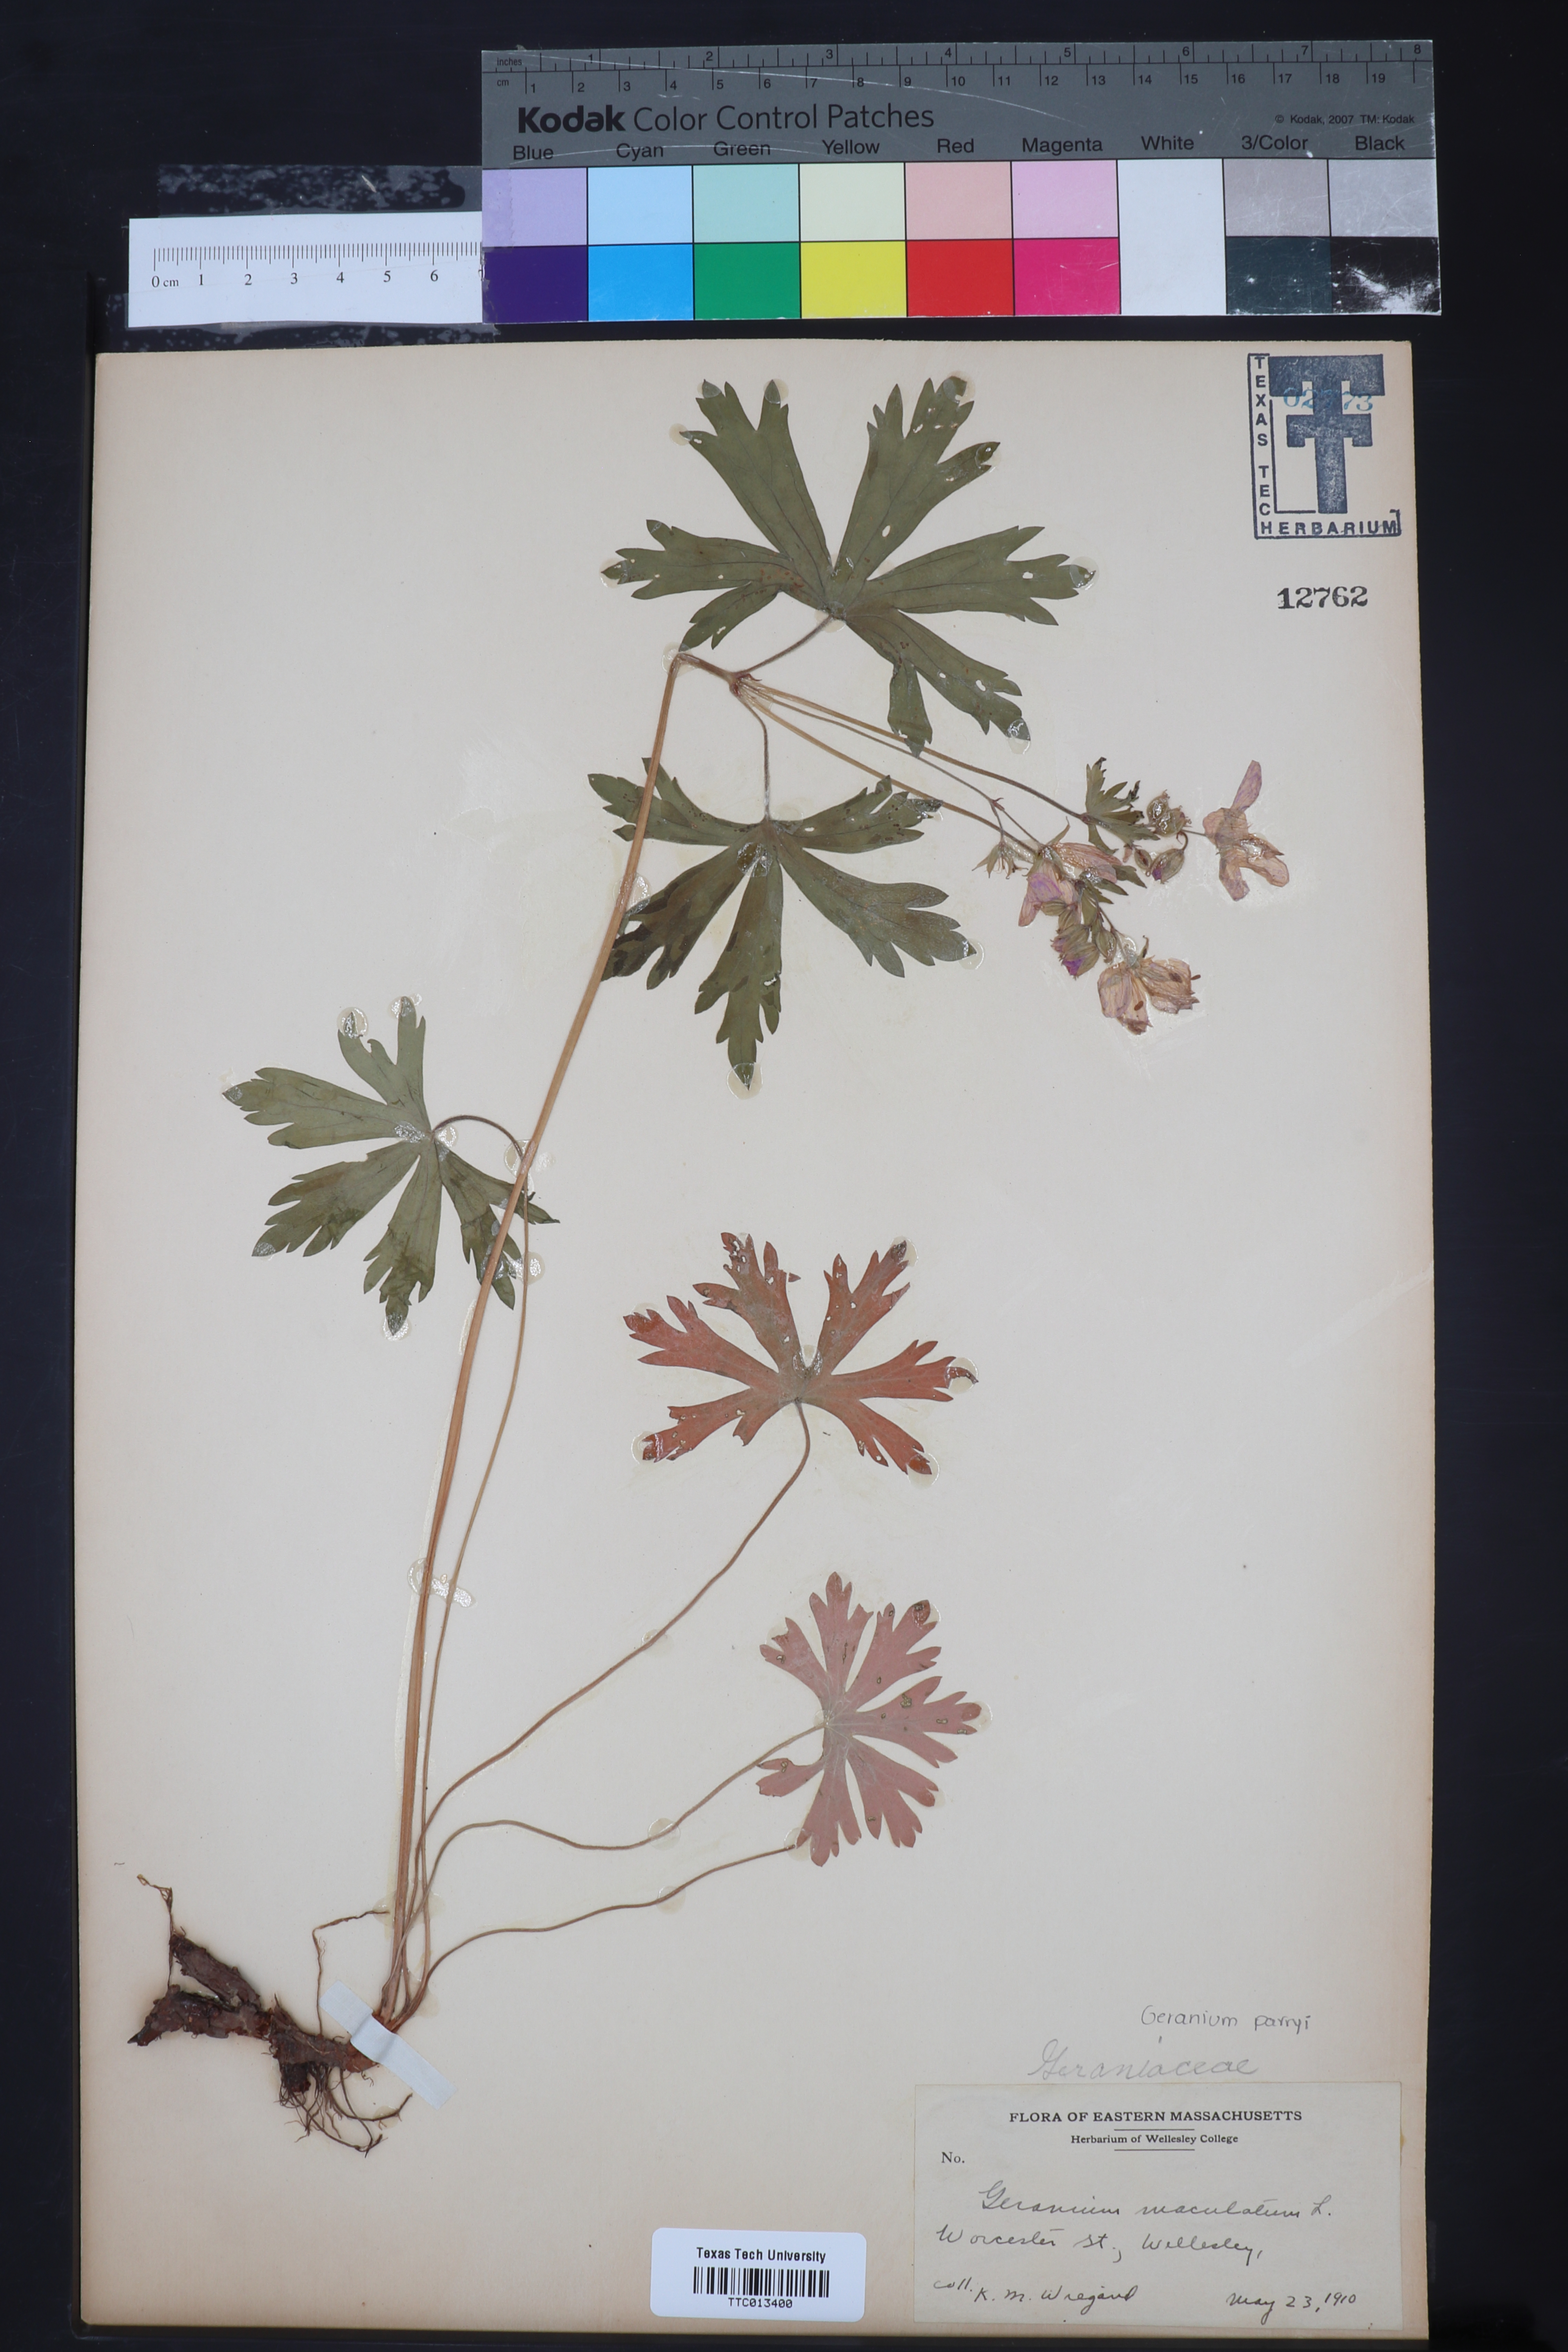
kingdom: Plantae
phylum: Tracheophyta
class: Magnoliopsida
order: Geraniales
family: Geraniaceae
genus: Geranium
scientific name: Geranium maculatum
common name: Spotted geranium
